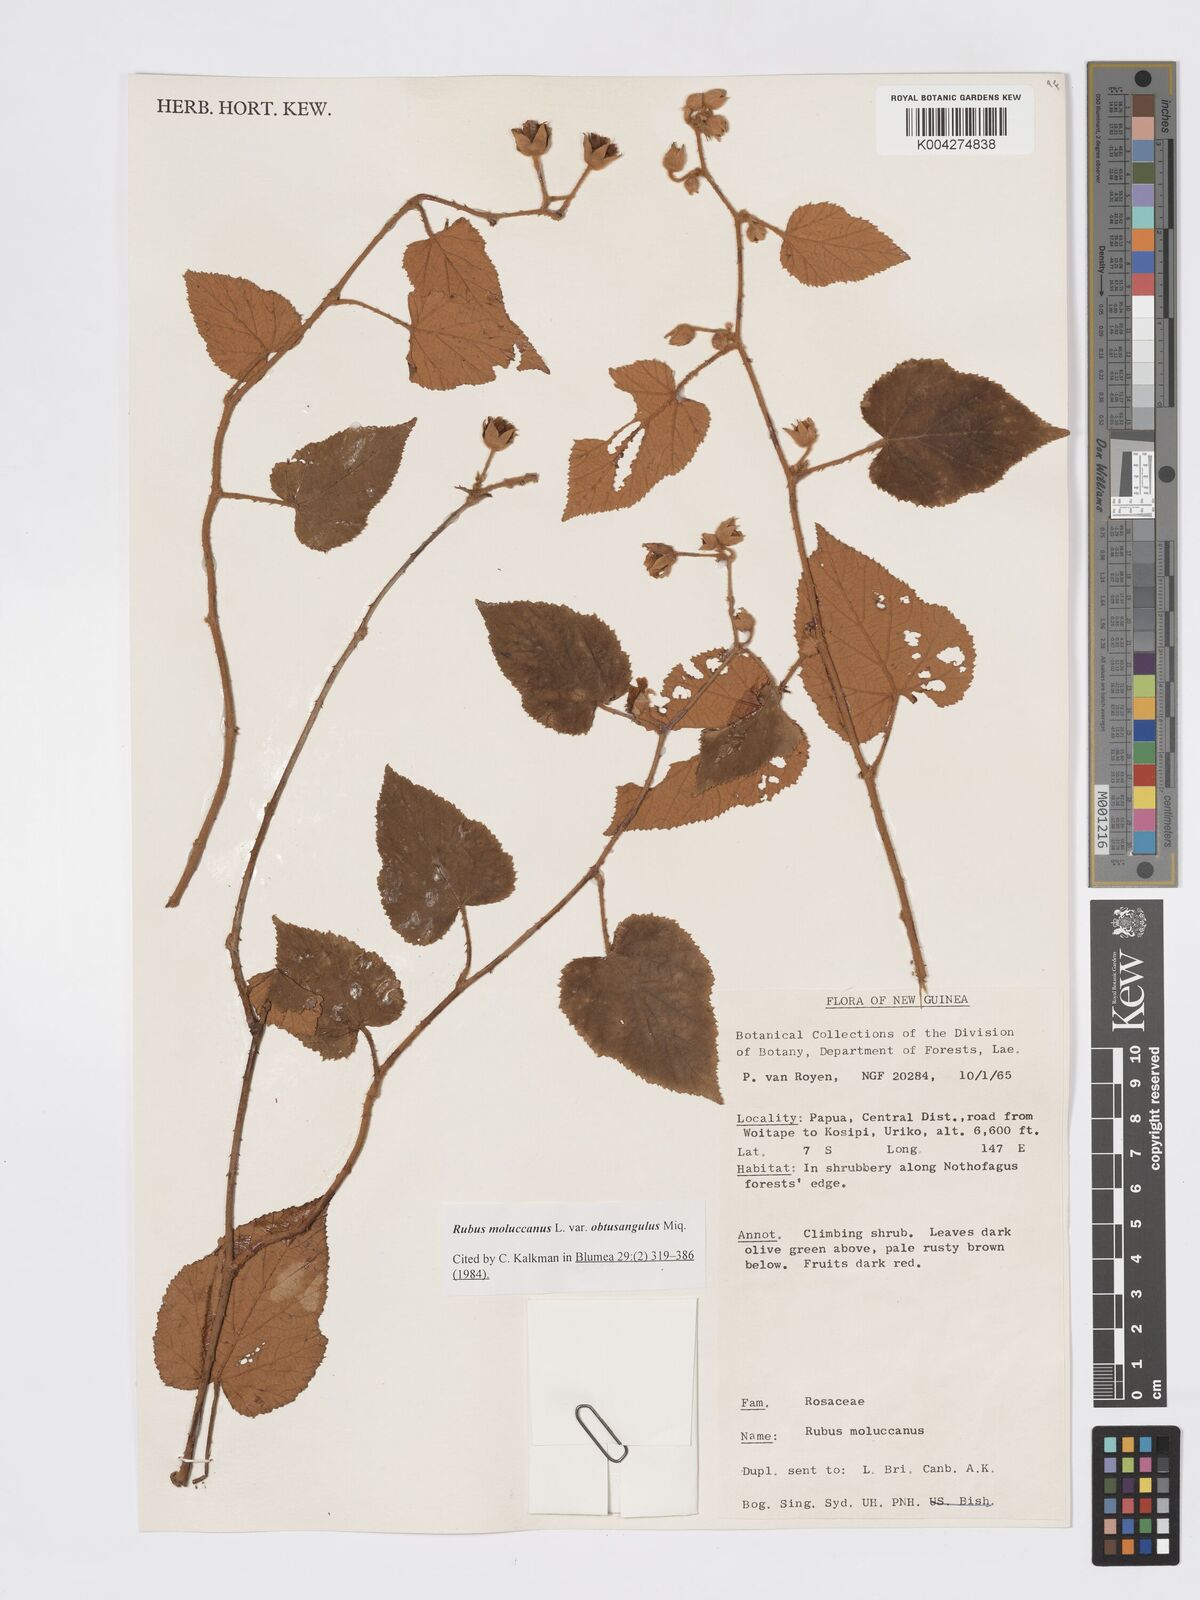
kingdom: Plantae
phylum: Tracheophyta
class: Magnoliopsida
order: Rosales
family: Rosaceae
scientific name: Rosaceae
